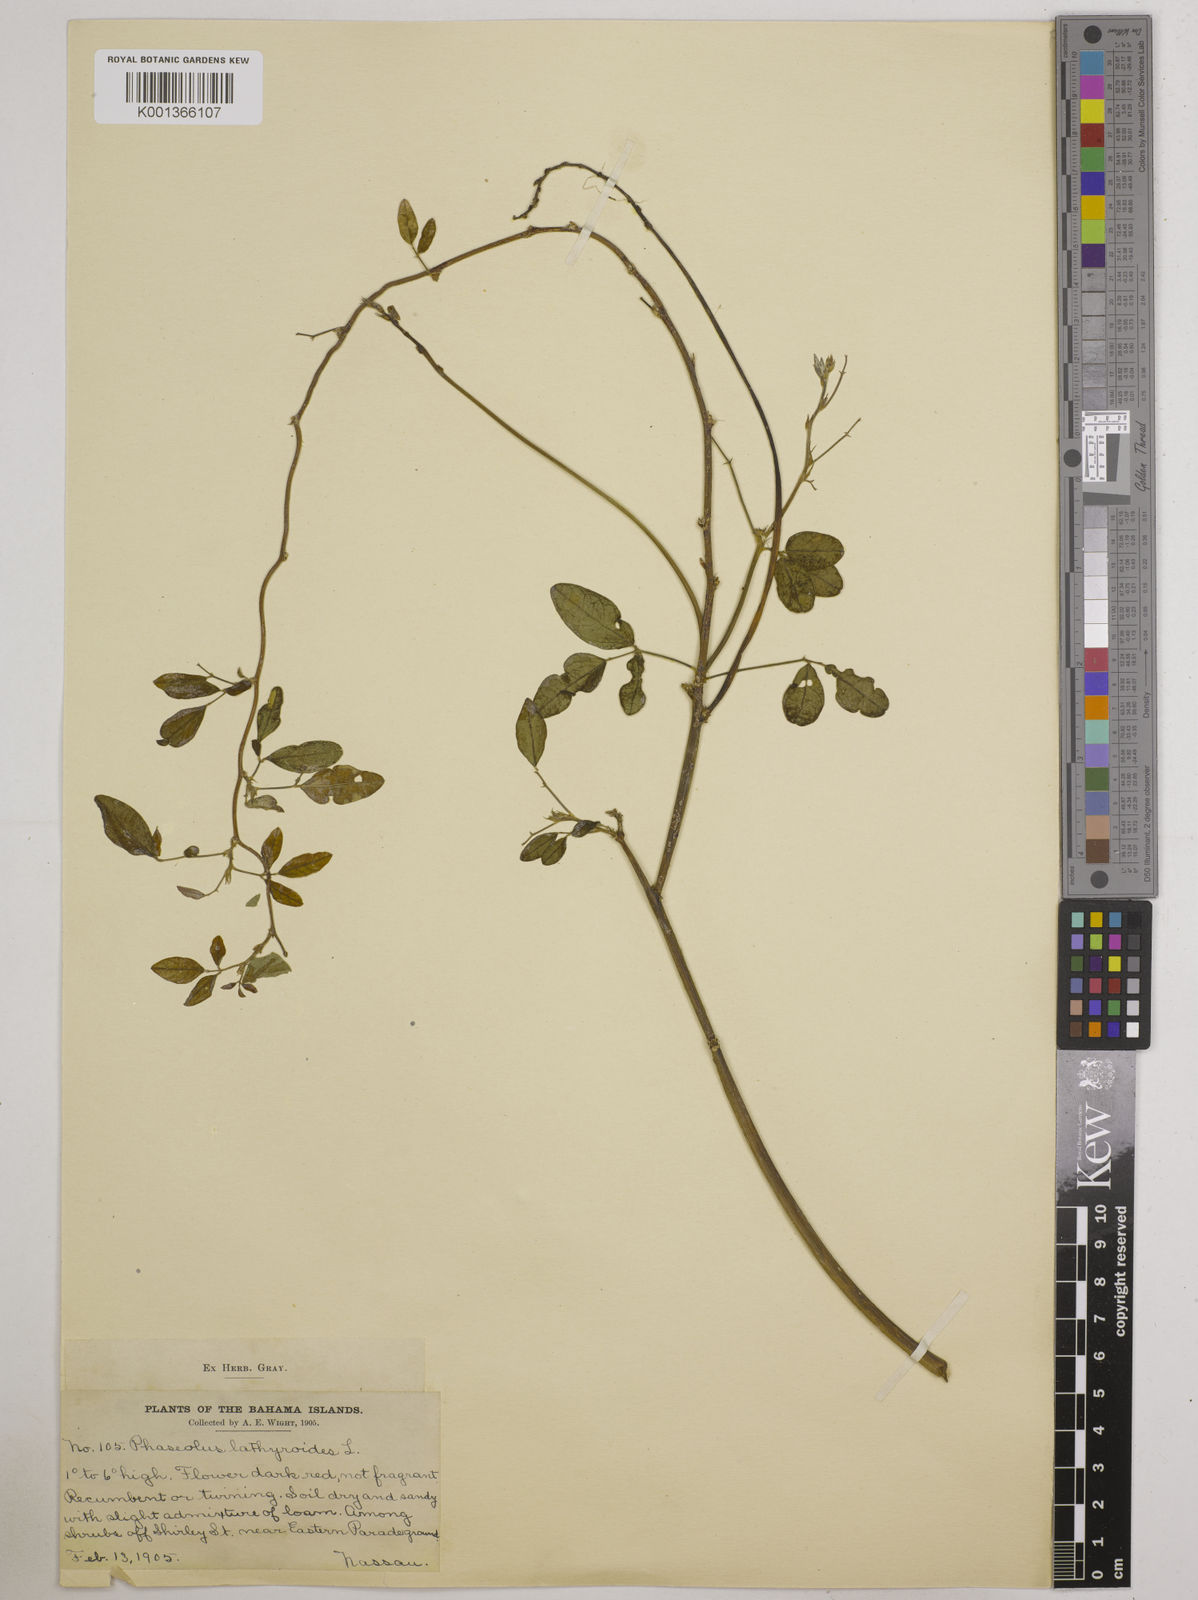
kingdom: Plantae
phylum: Tracheophyta
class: Magnoliopsida
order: Fabales
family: Fabaceae
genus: Macroptilium
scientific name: Macroptilium lathyroides
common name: Wild bushbean
